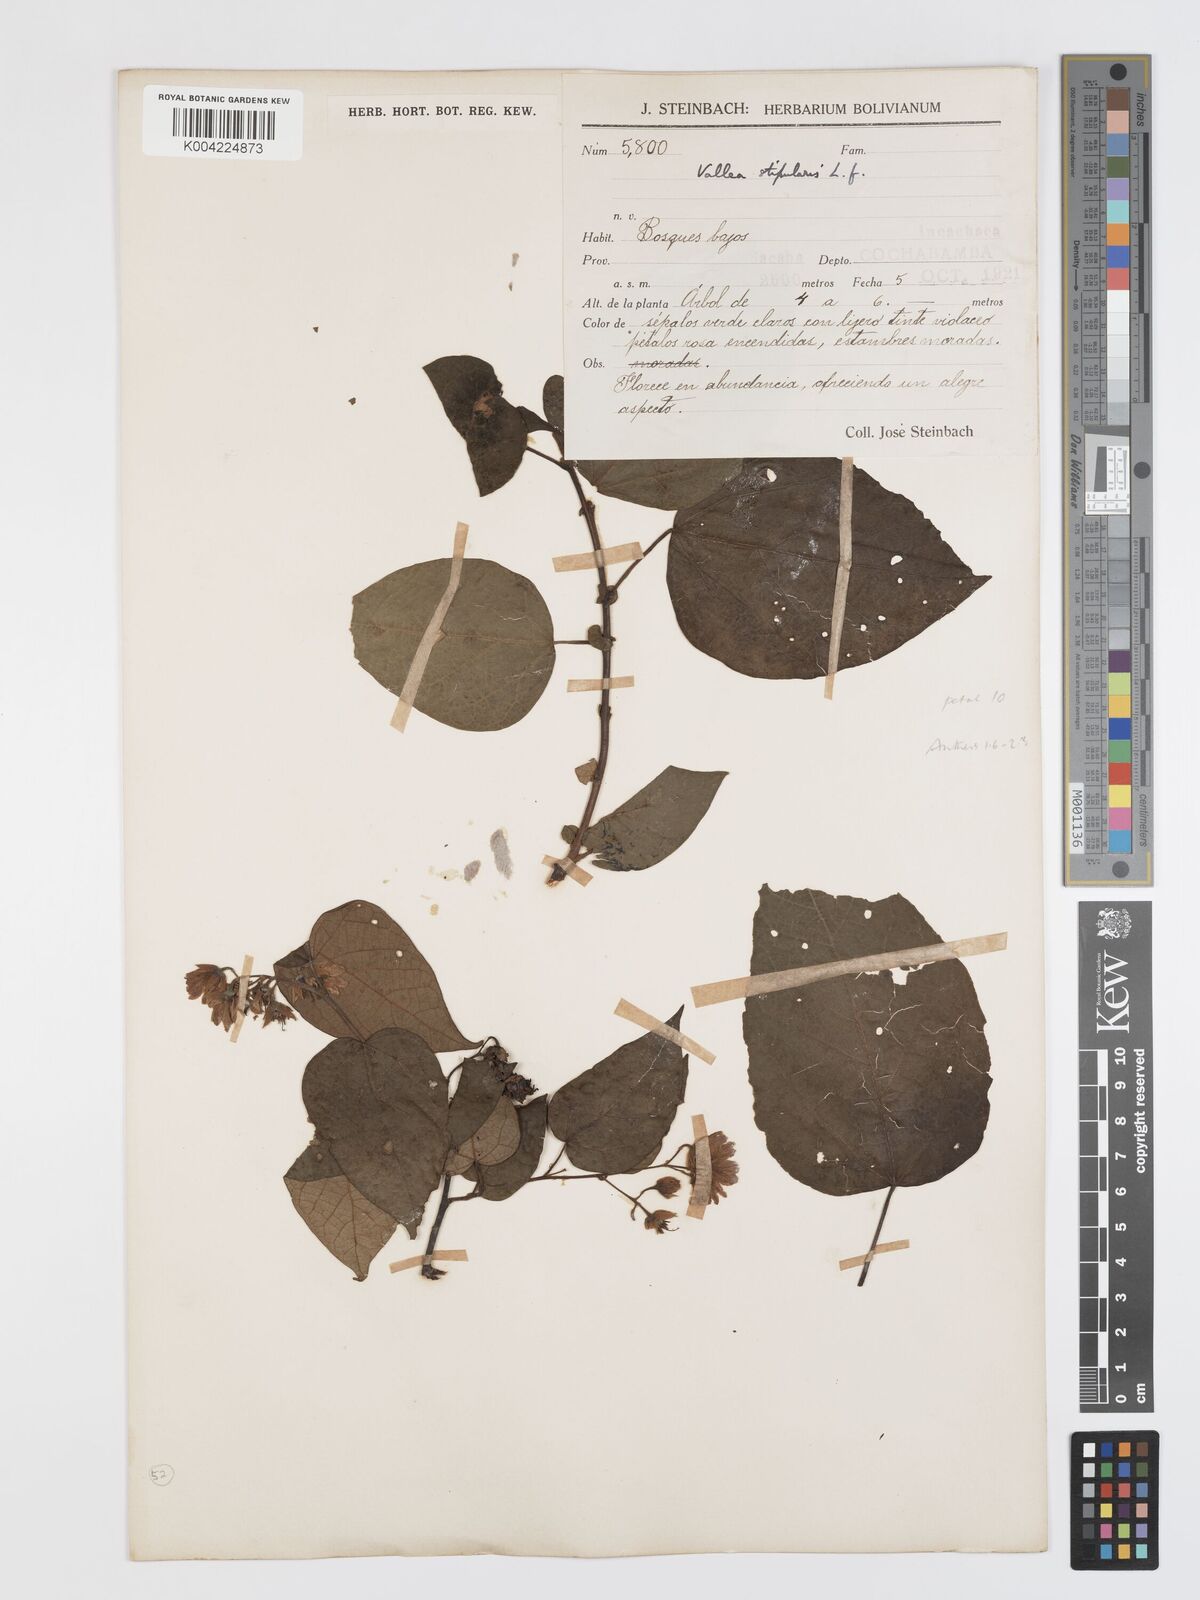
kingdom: Plantae
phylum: Tracheophyta
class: Magnoliopsida
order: Oxalidales
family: Elaeocarpaceae
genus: Vallea
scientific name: Vallea stipularis
